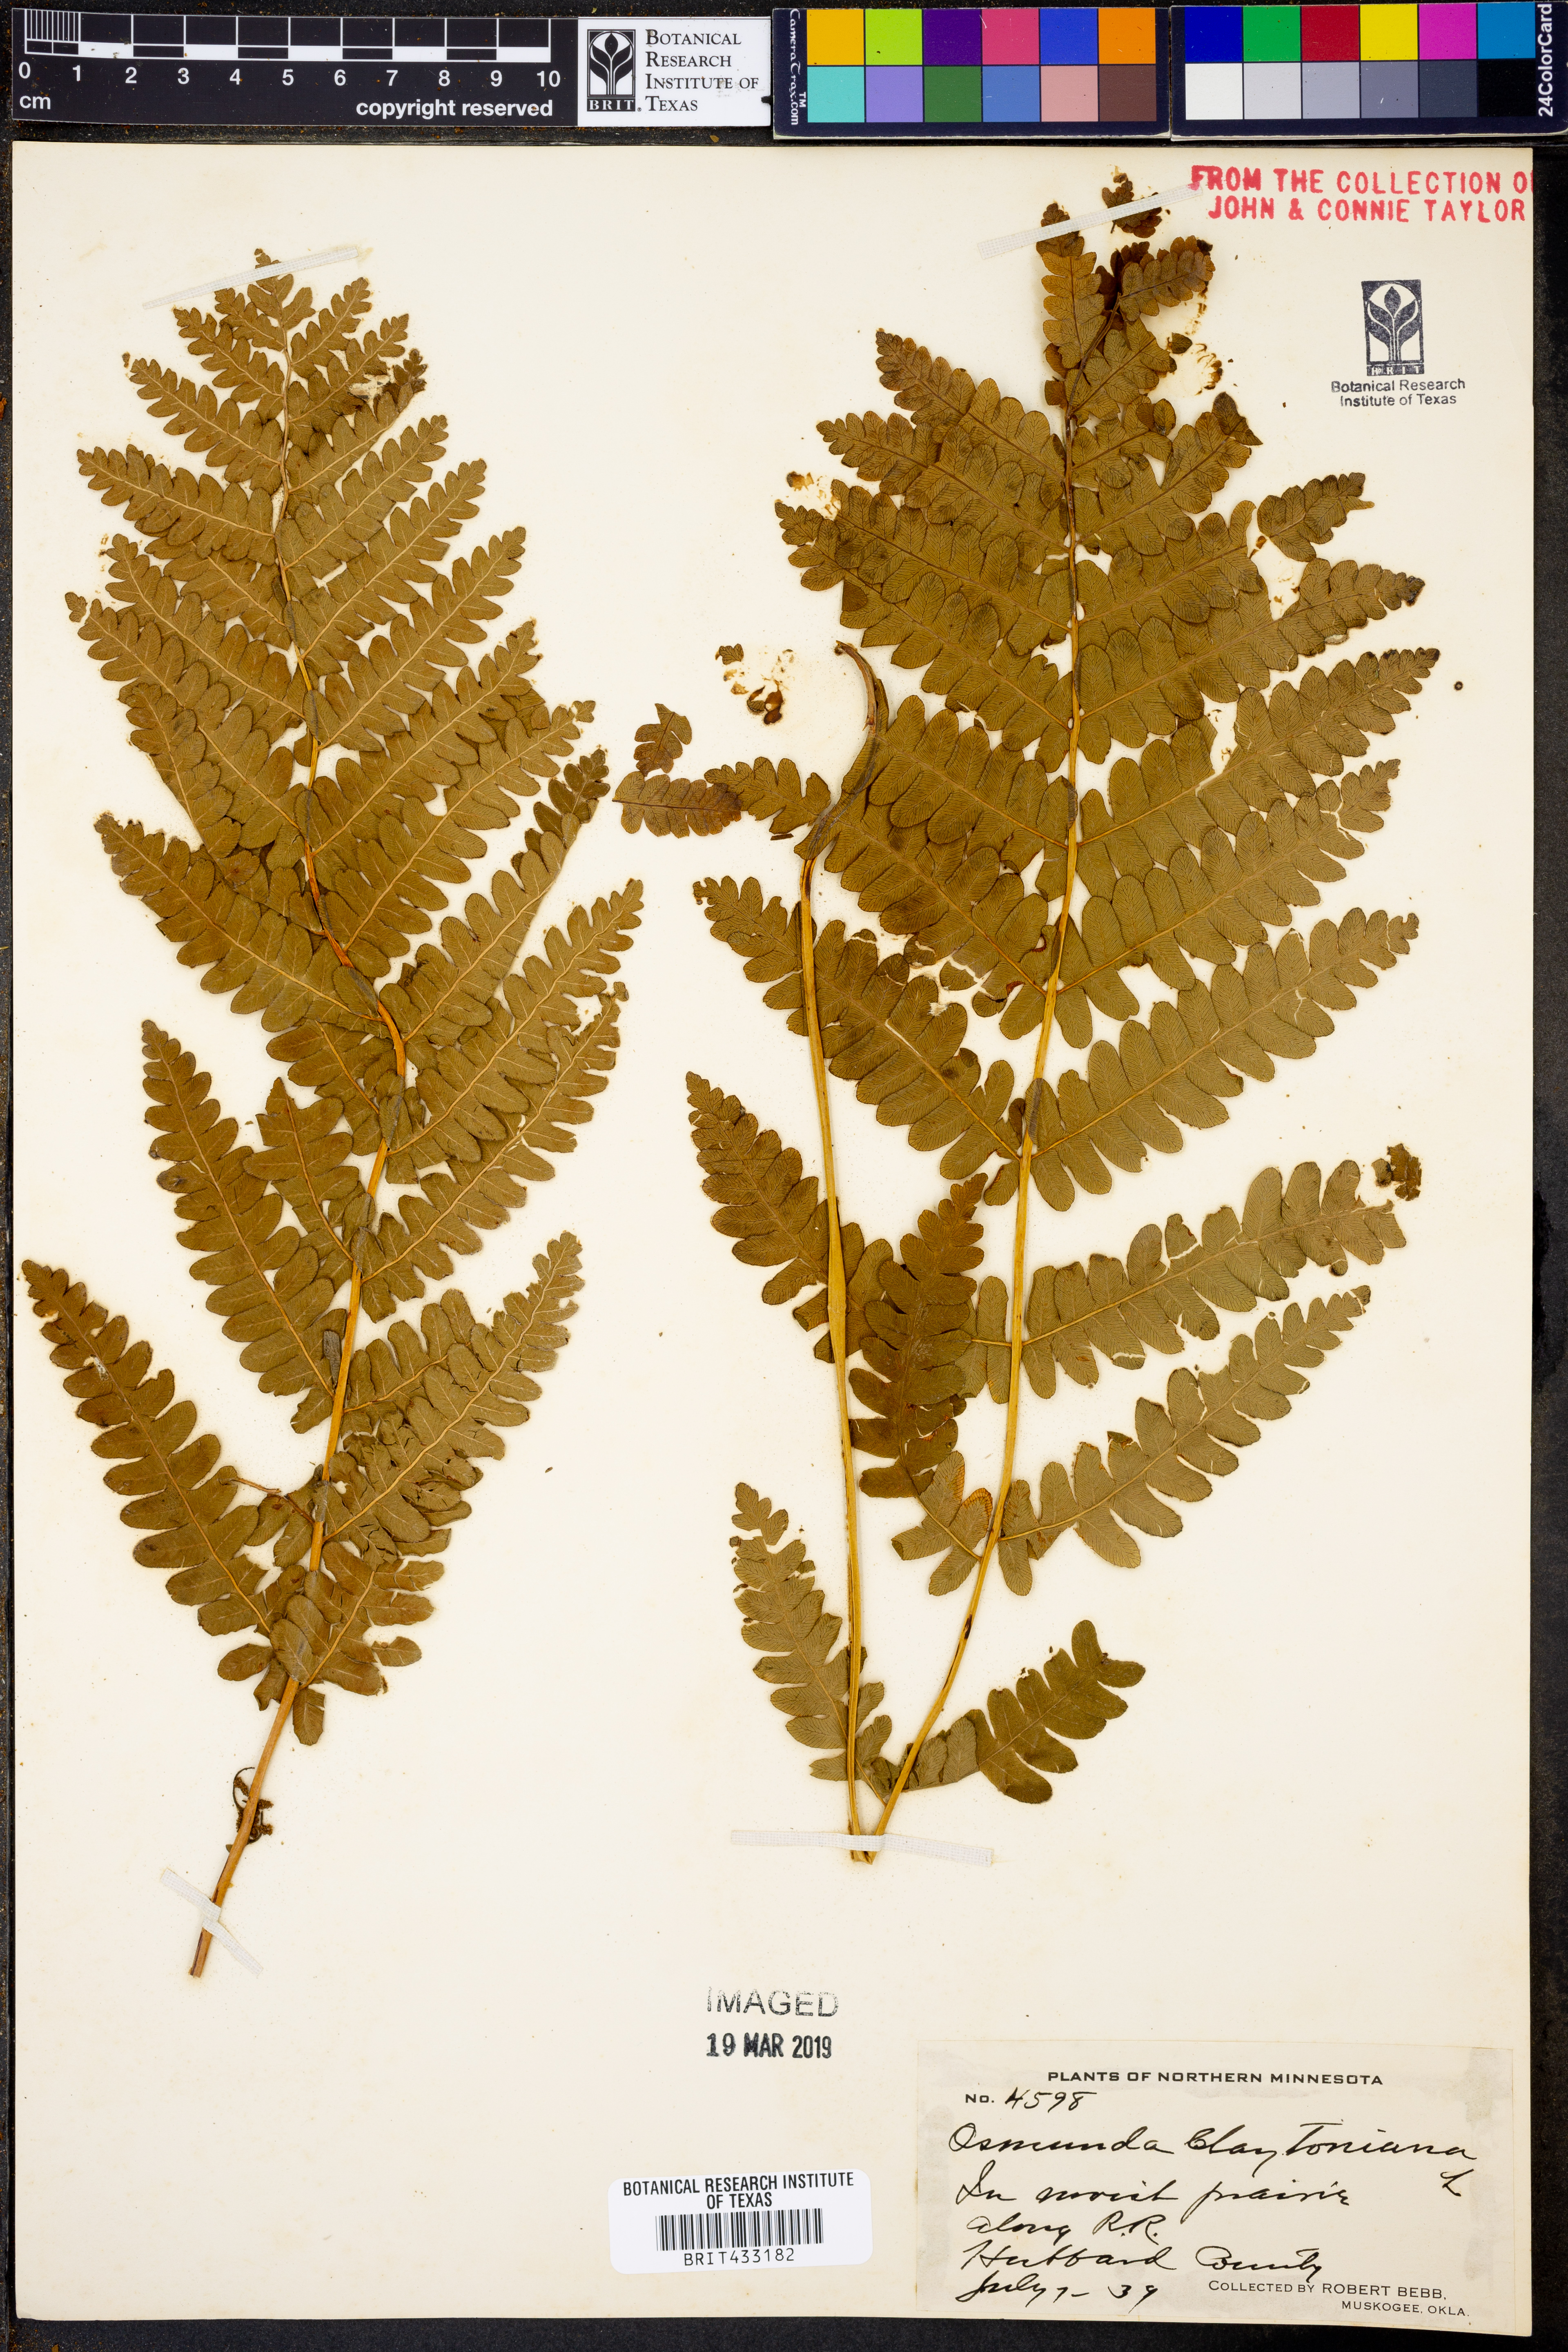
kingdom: Plantae
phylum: Tracheophyta
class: Polypodiopsida
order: Osmundales
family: Osmundaceae
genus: Claytosmunda
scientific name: Claytosmunda claytoniana
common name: Clayton's fern
